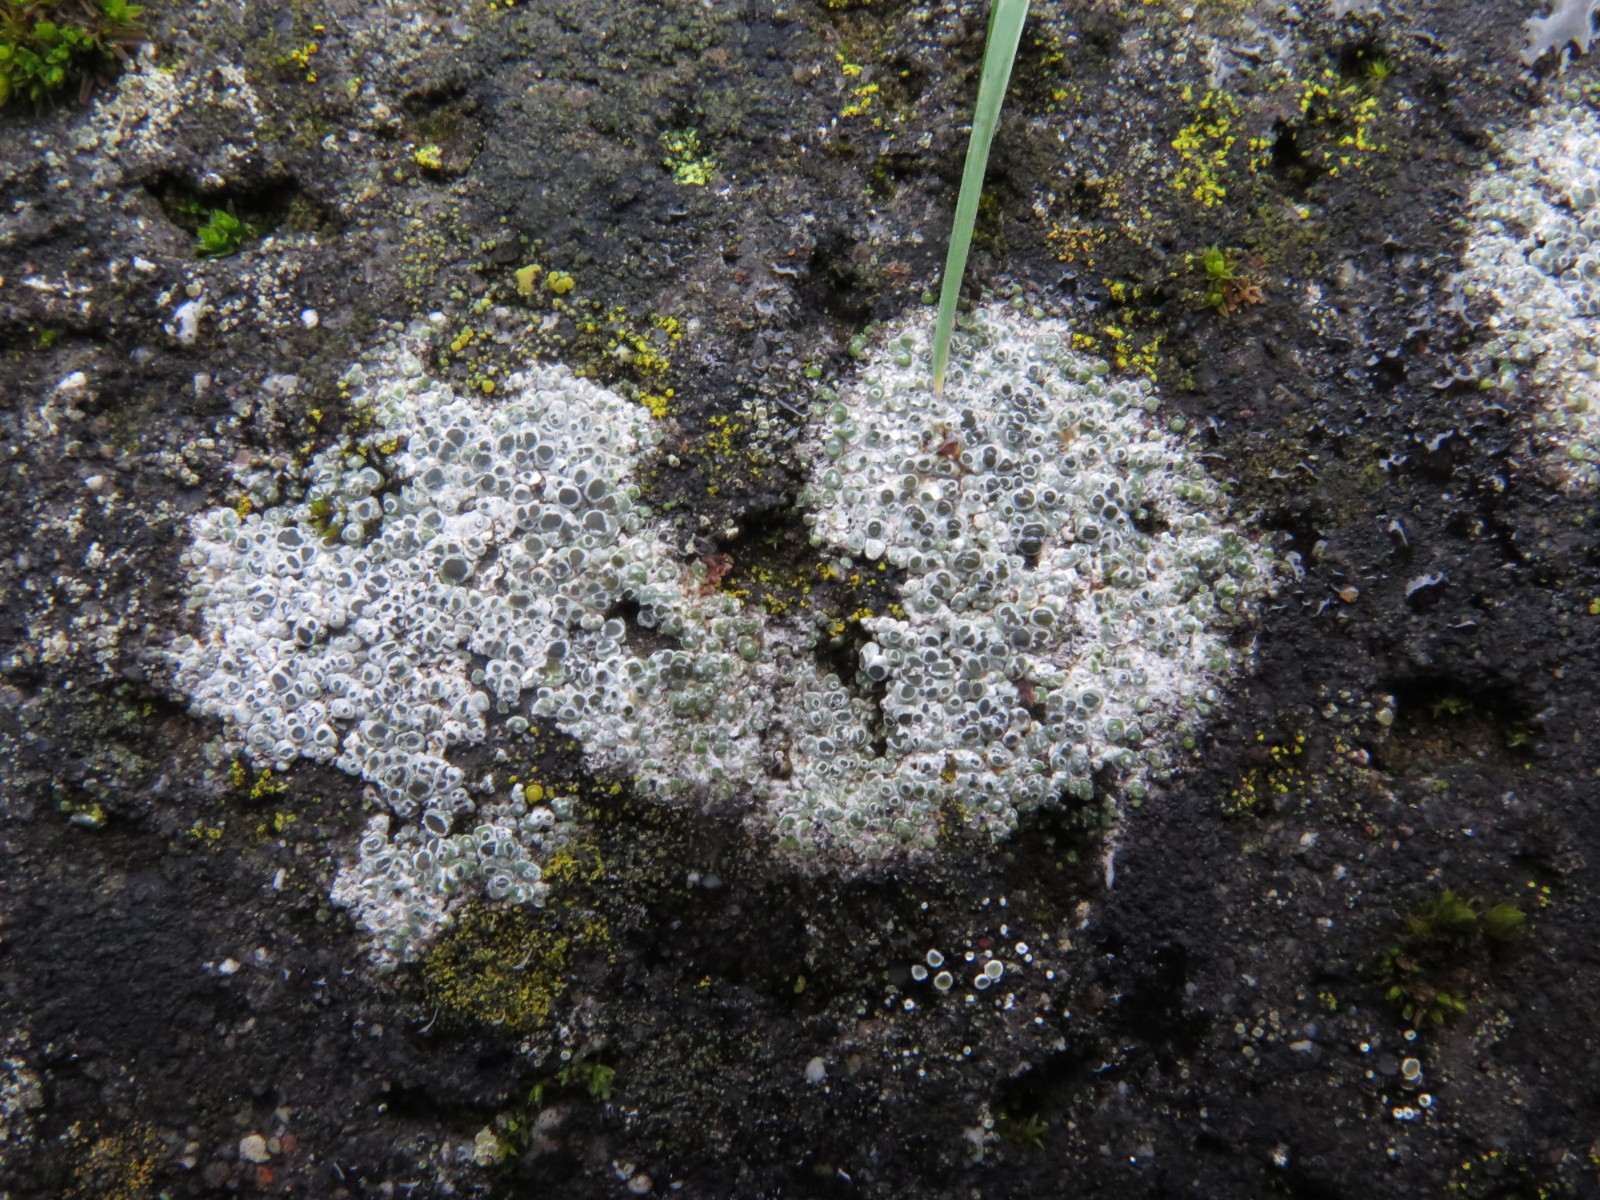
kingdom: Fungi
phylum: Ascomycota
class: Lecanoromycetes
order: Pertusariales
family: Megasporaceae
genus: Circinaria
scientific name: Circinaria contorta
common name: indviklet hulskivelav
